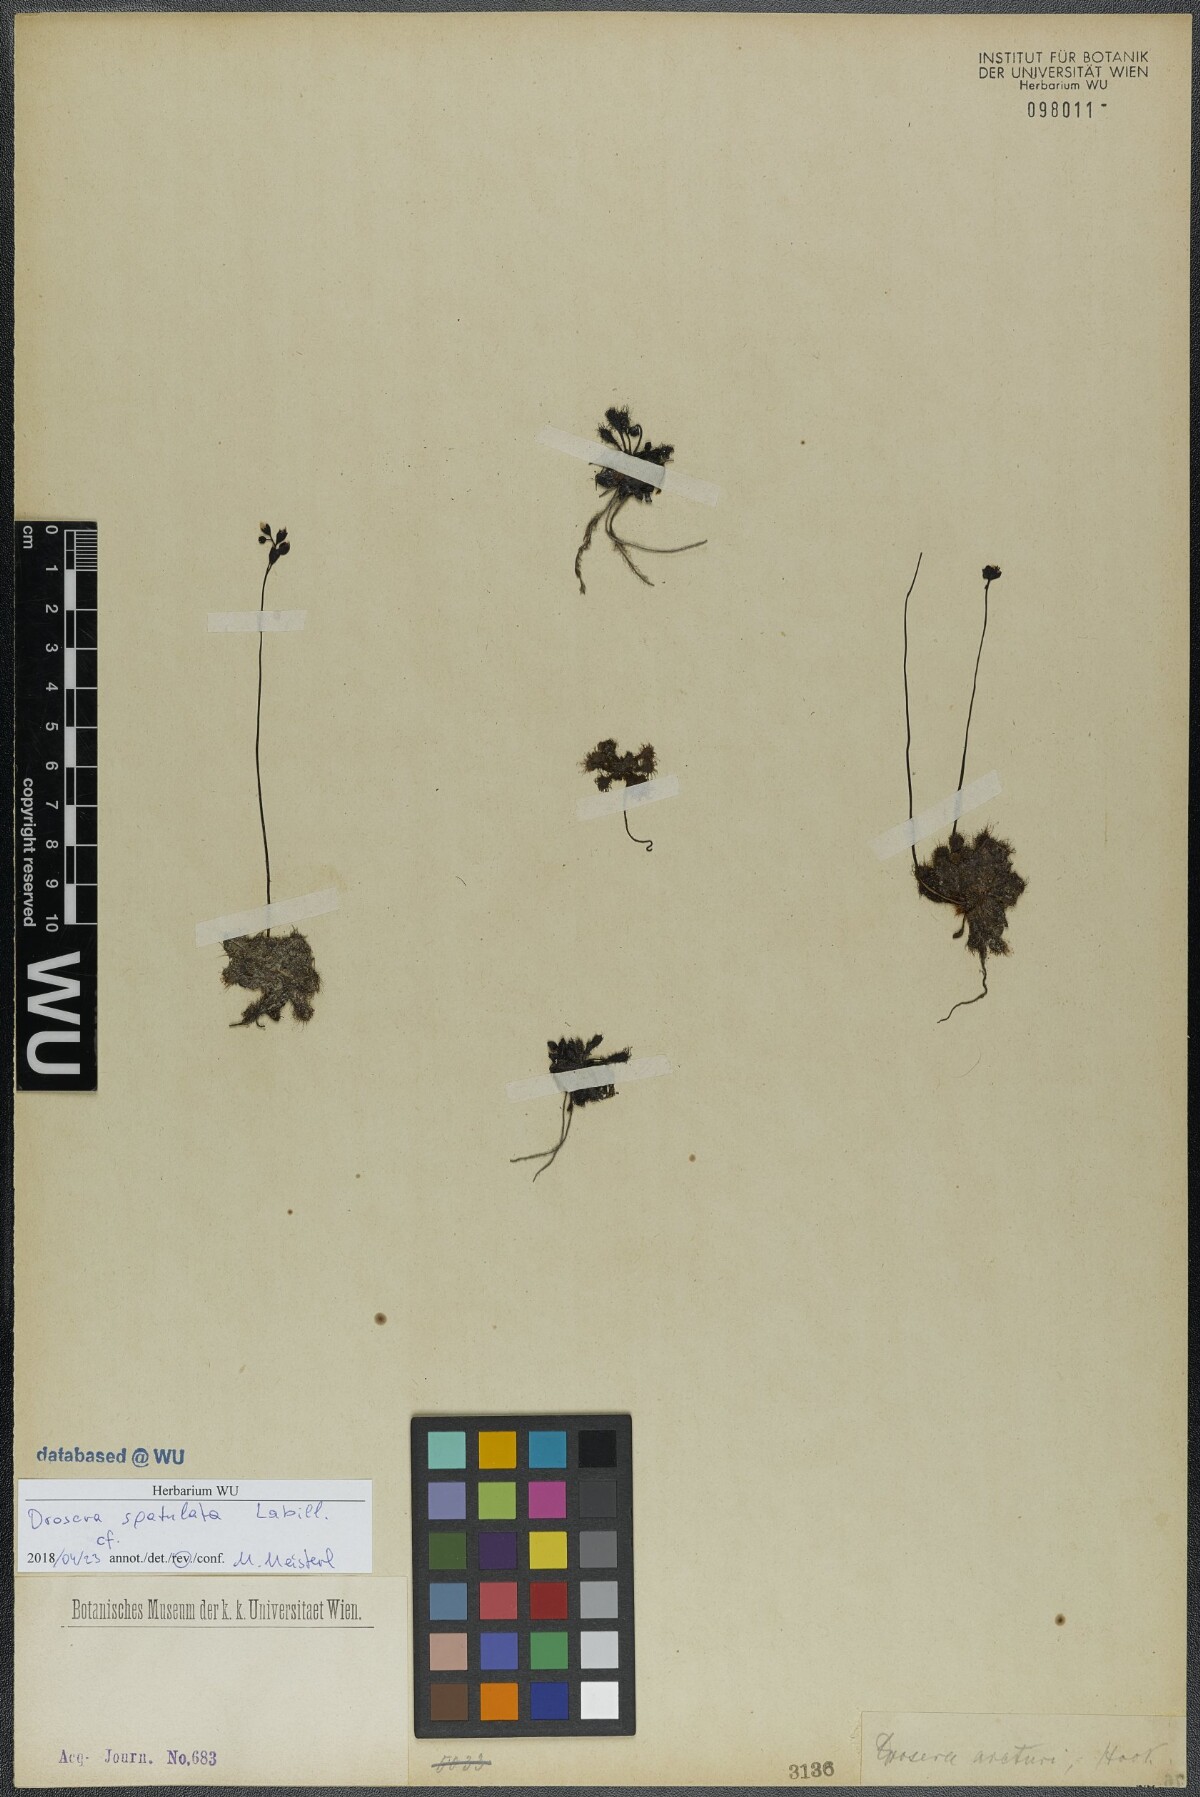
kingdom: Plantae
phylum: Tracheophyta
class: Magnoliopsida
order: Caryophyllales
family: Droseraceae
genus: Drosera
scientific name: Drosera spatulata
